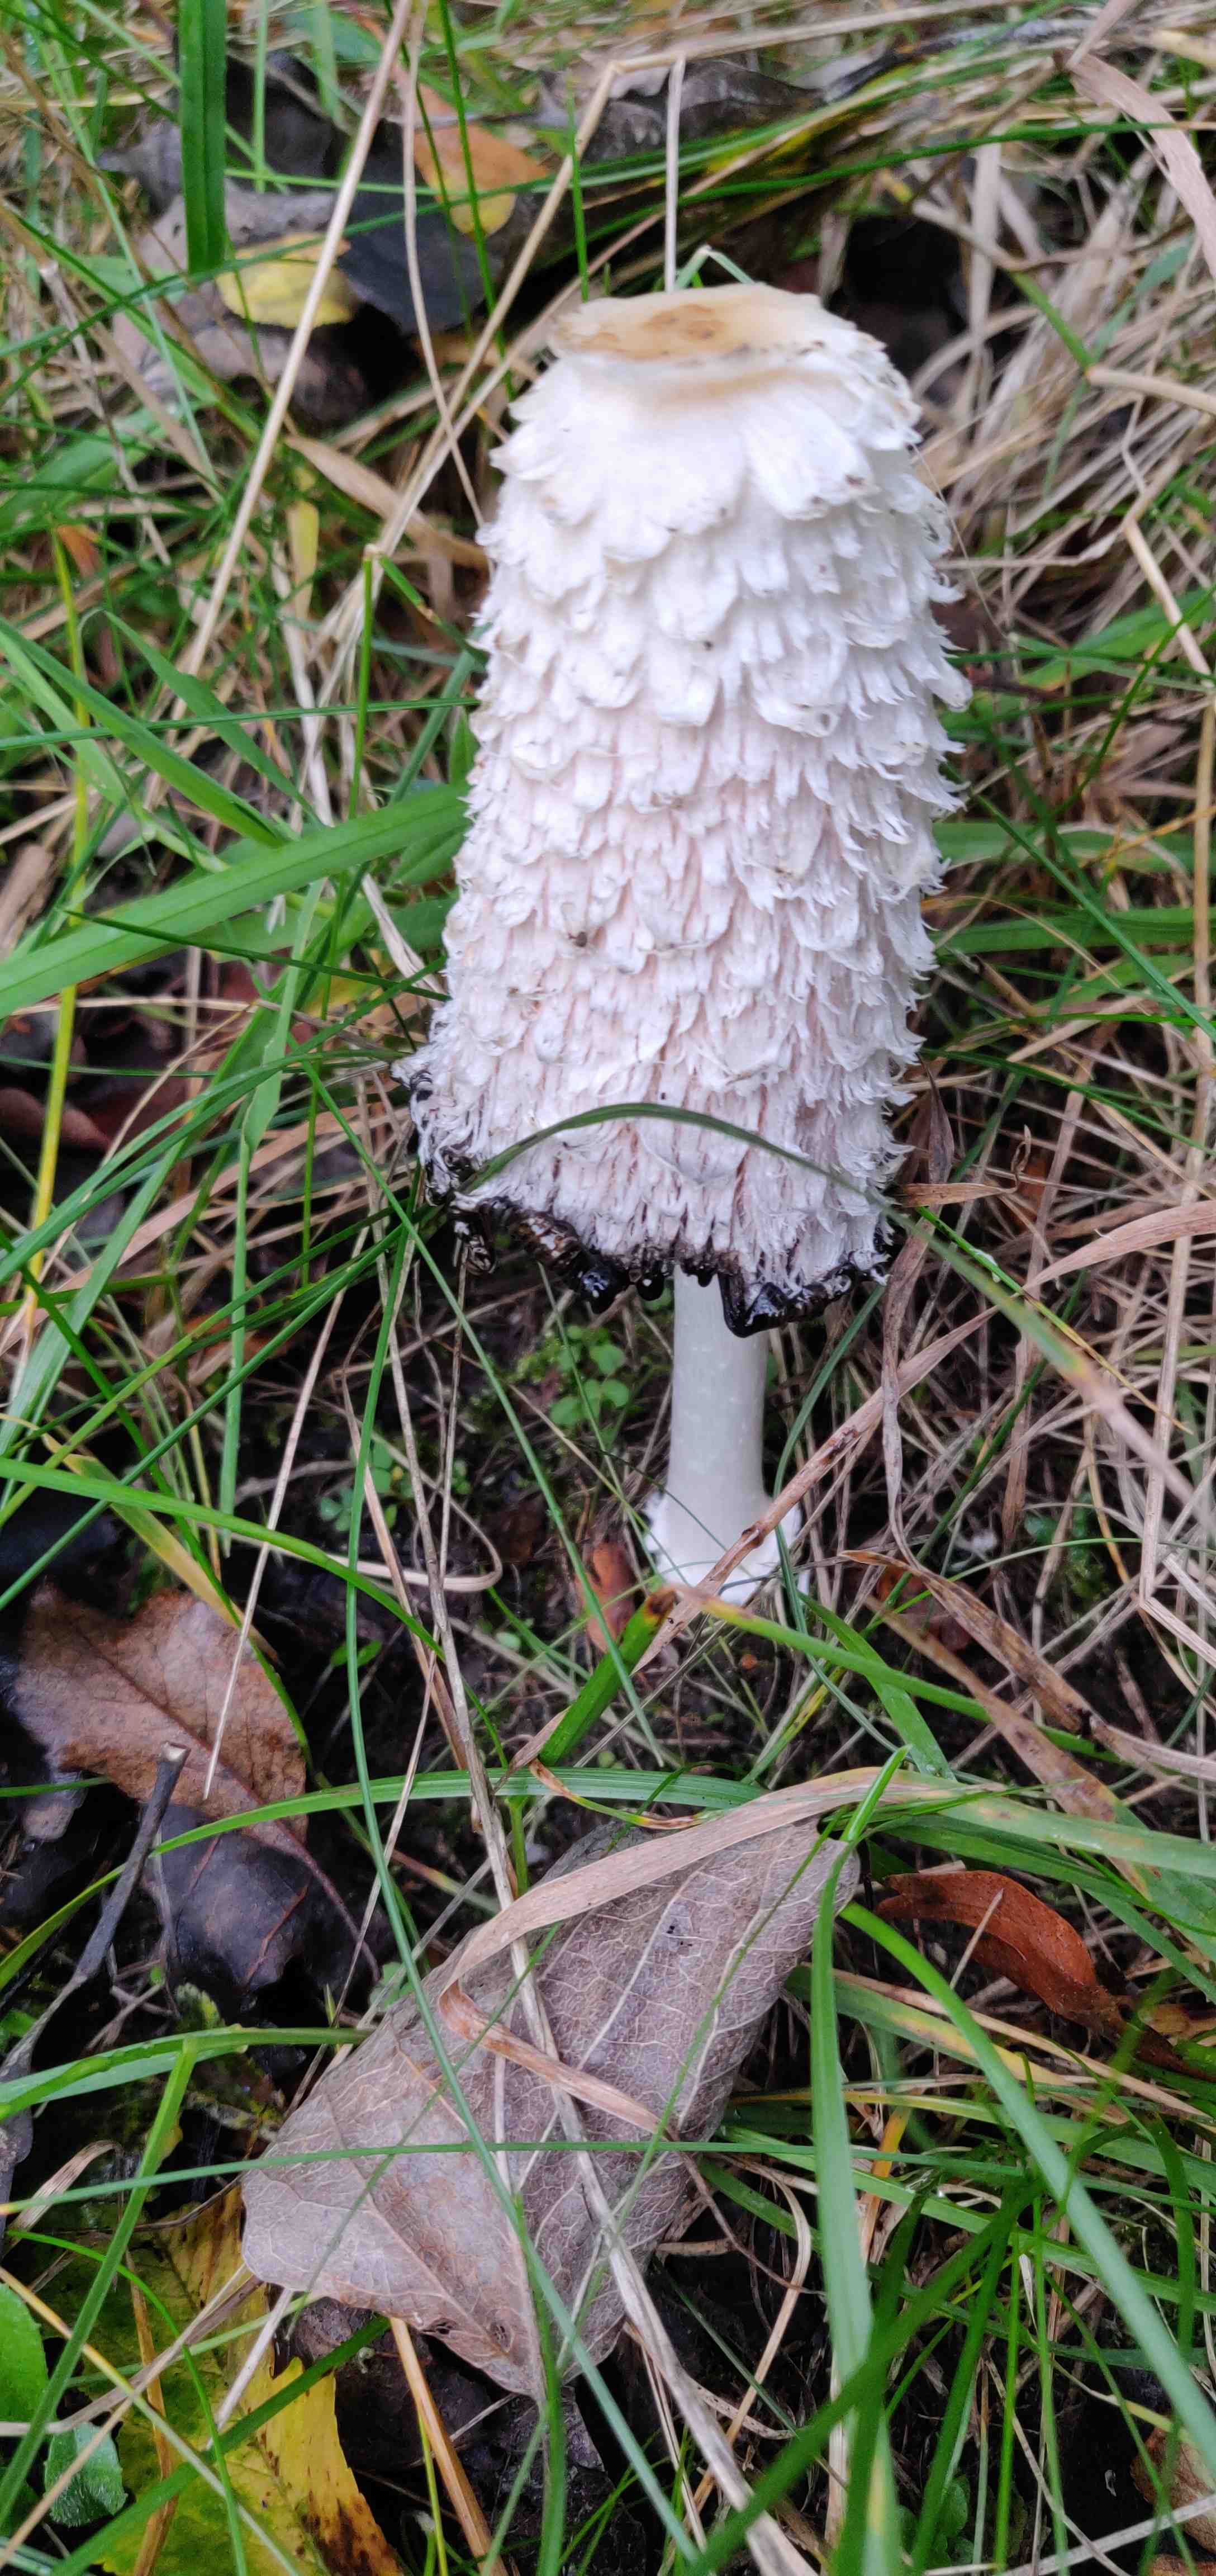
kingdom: Fungi
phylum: Basidiomycota
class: Agaricomycetes
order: Agaricales
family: Agaricaceae
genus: Coprinus
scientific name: Coprinus comatus
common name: stor parykhat
